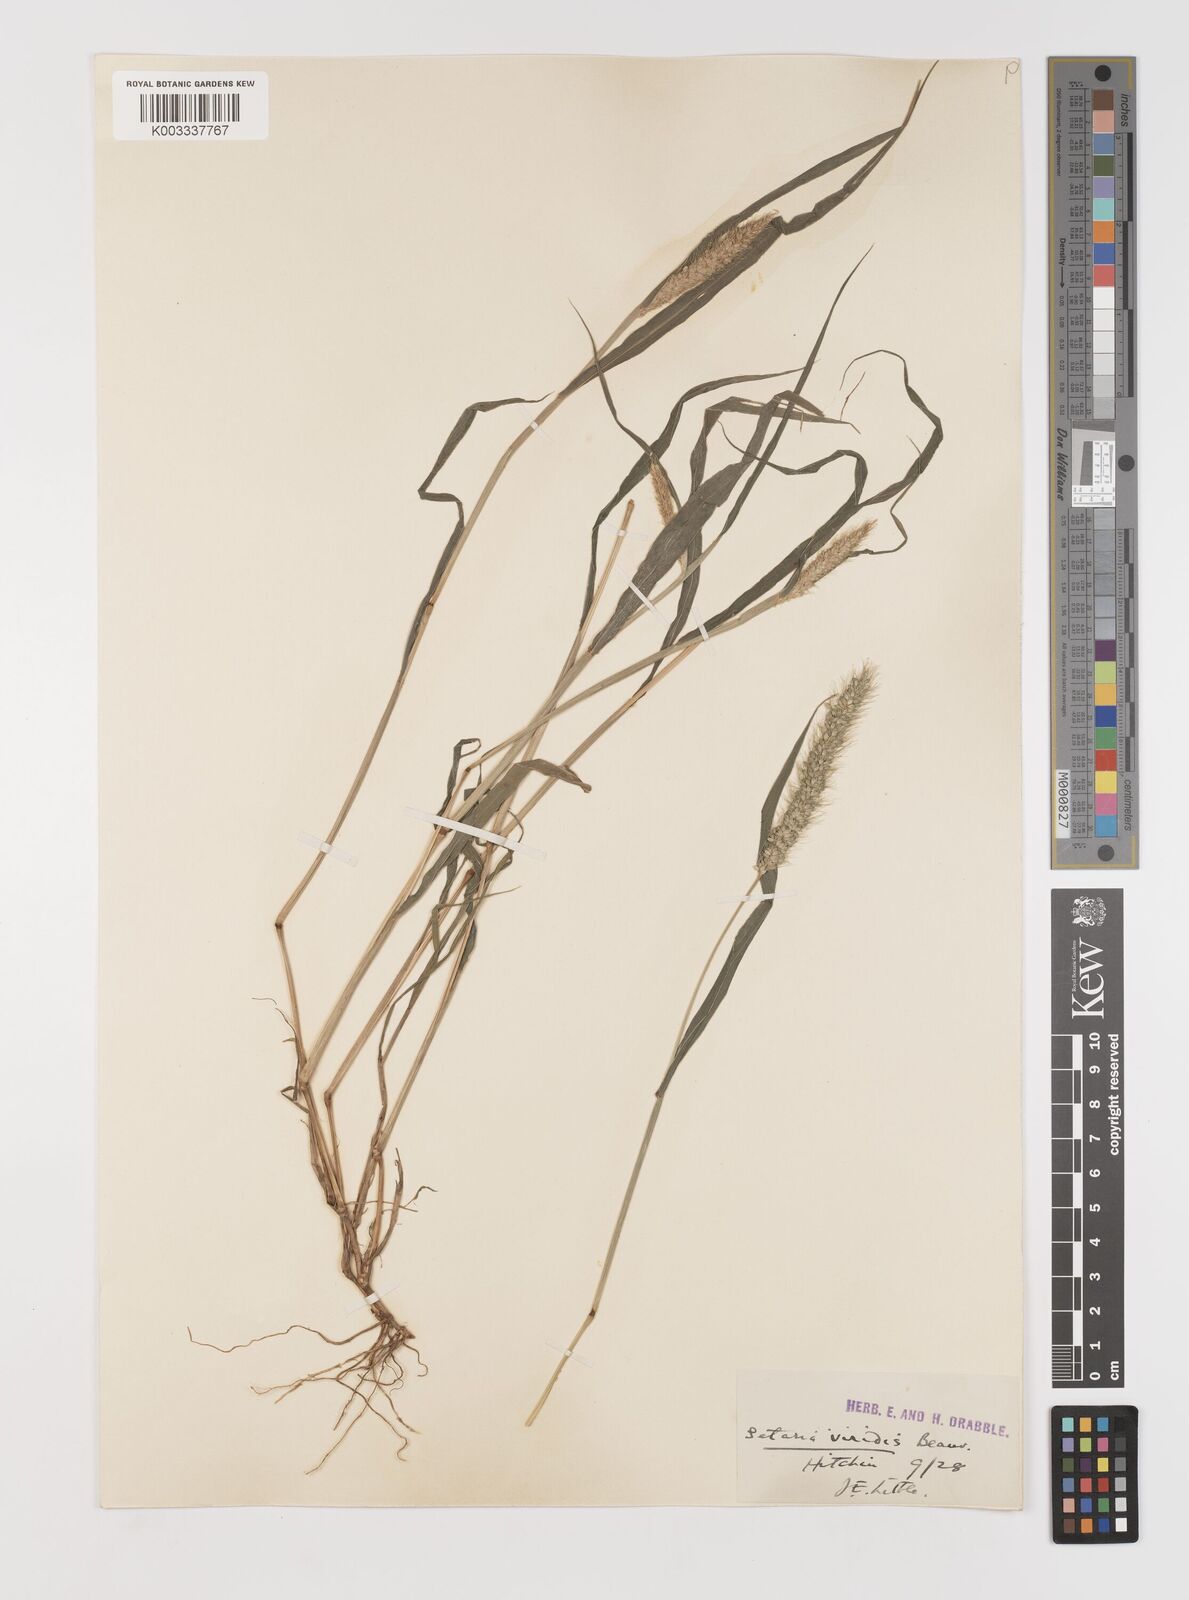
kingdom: Plantae
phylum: Tracheophyta
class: Liliopsida
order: Poales
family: Poaceae
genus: Setaria
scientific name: Setaria viridis
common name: Green bristlegrass
